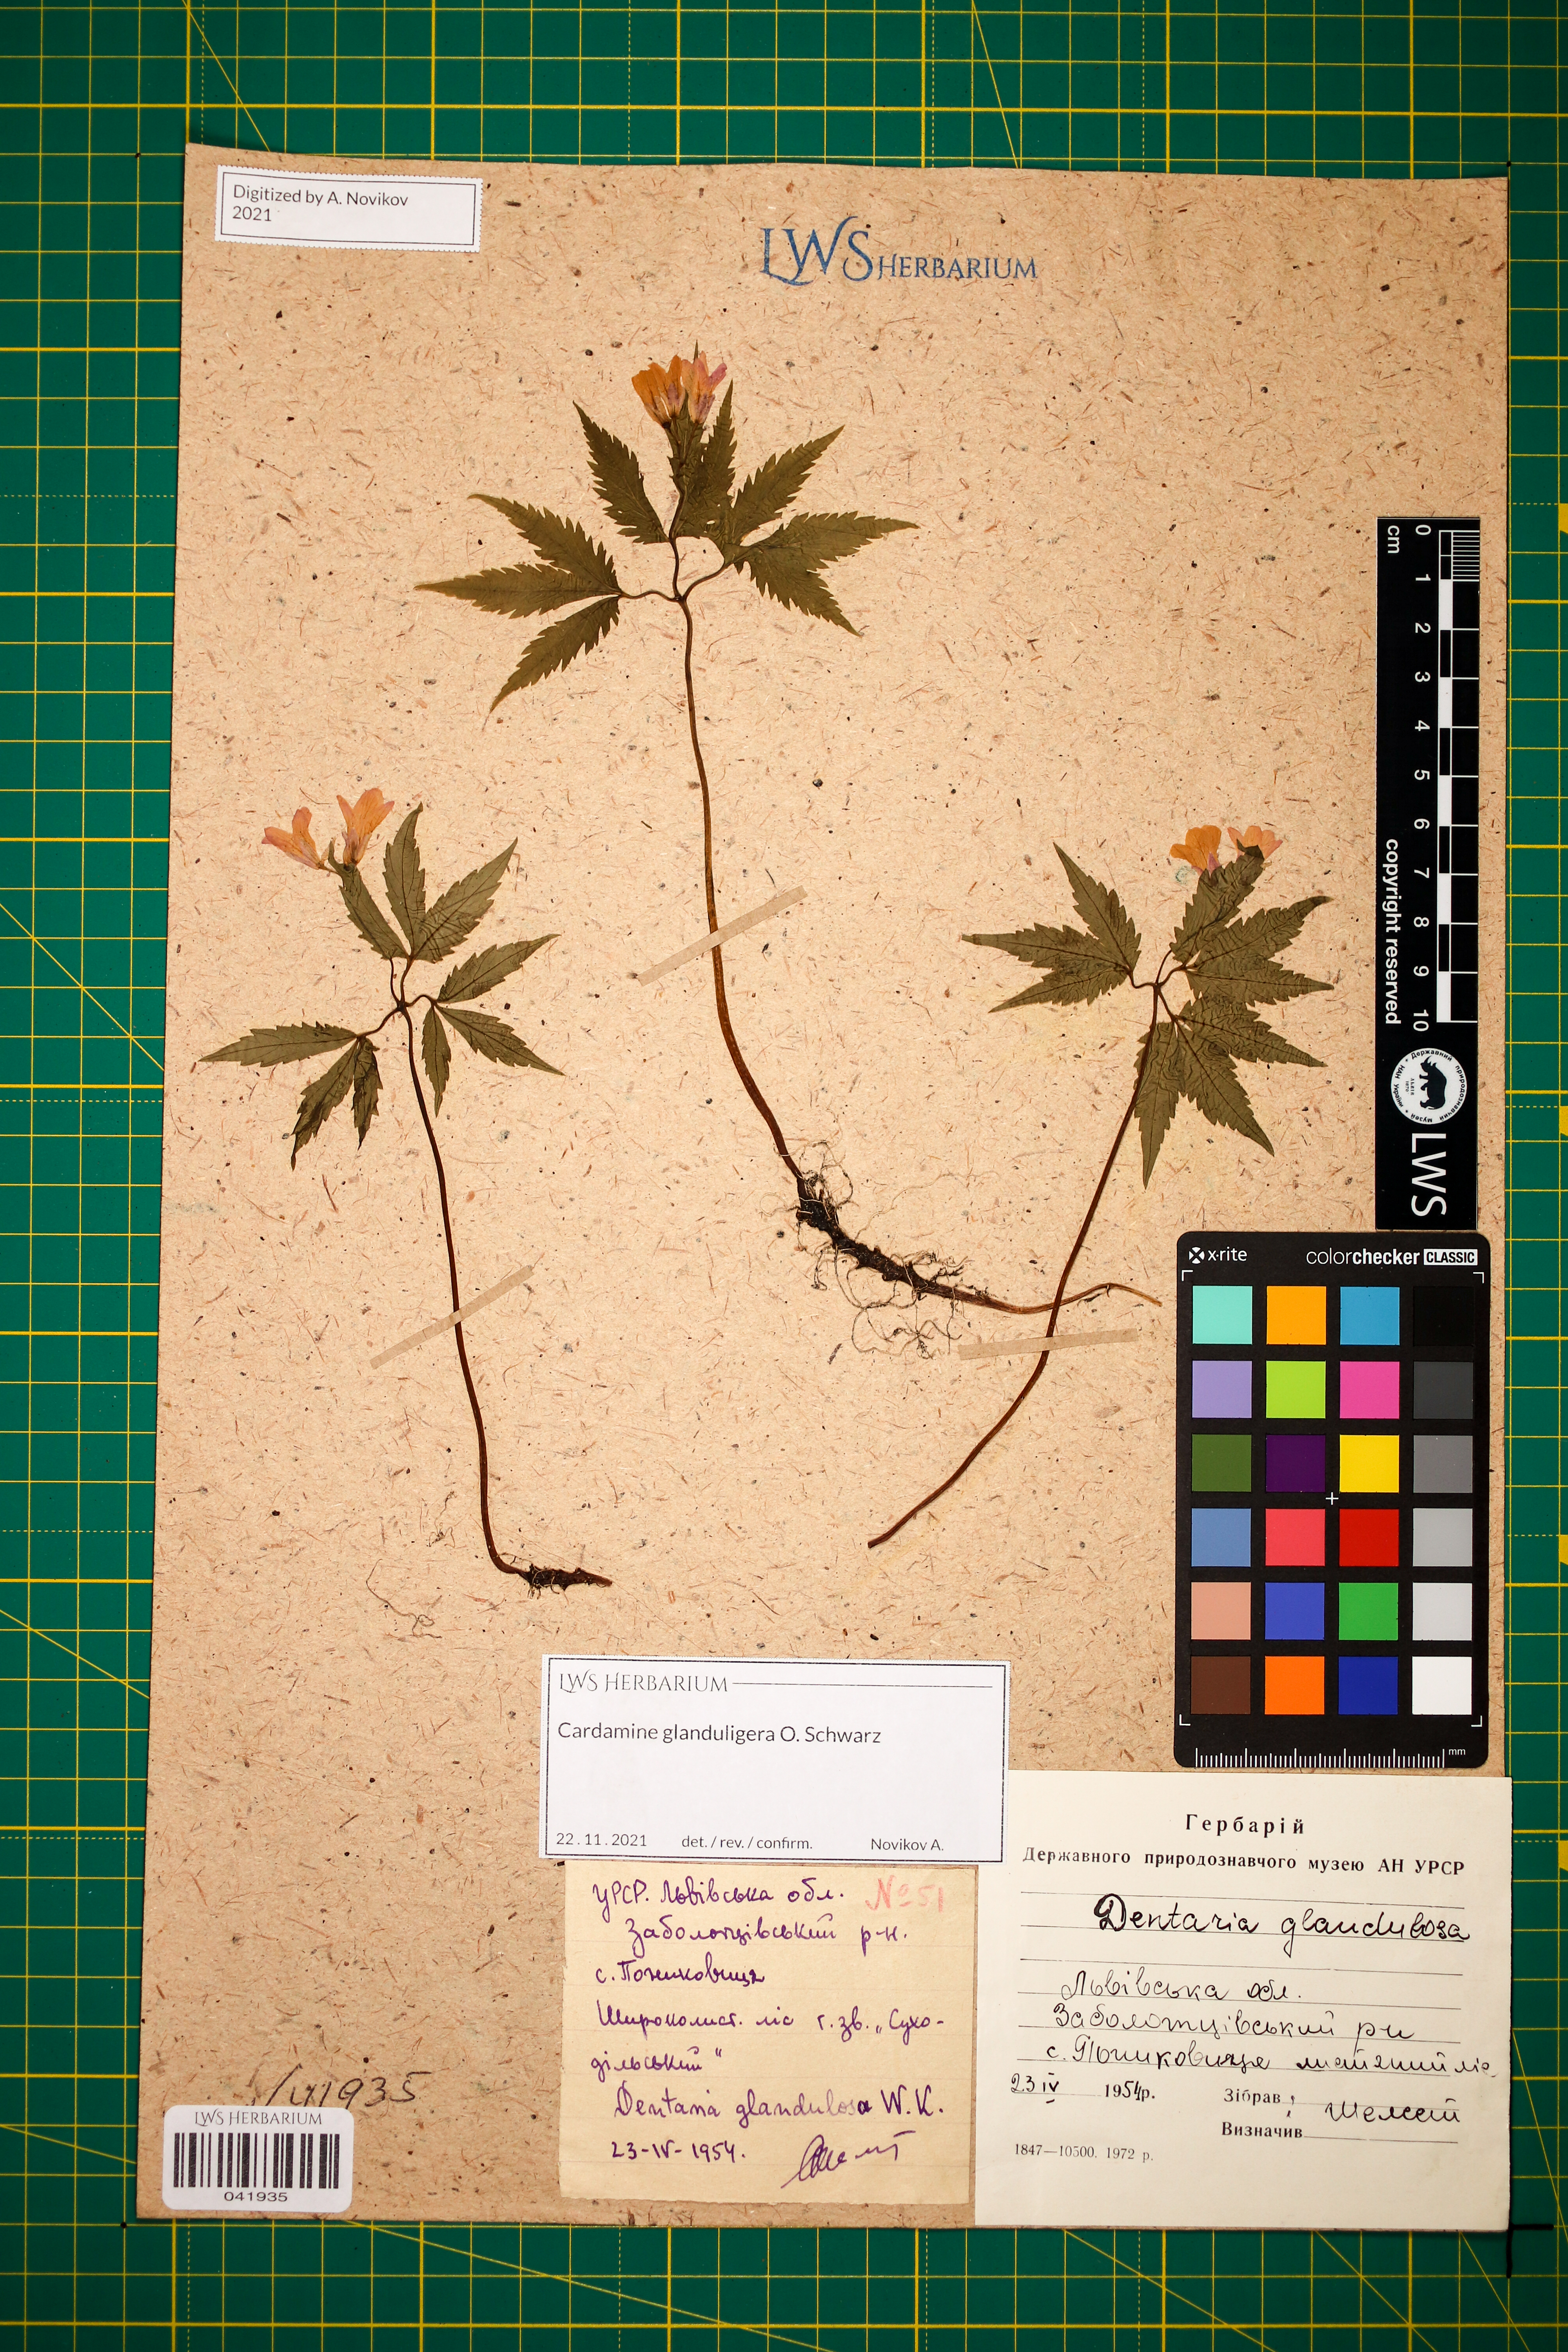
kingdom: Plantae
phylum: Tracheophyta
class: Magnoliopsida
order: Brassicales
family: Brassicaceae
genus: Cardamine
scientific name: Cardamine glanduligera
